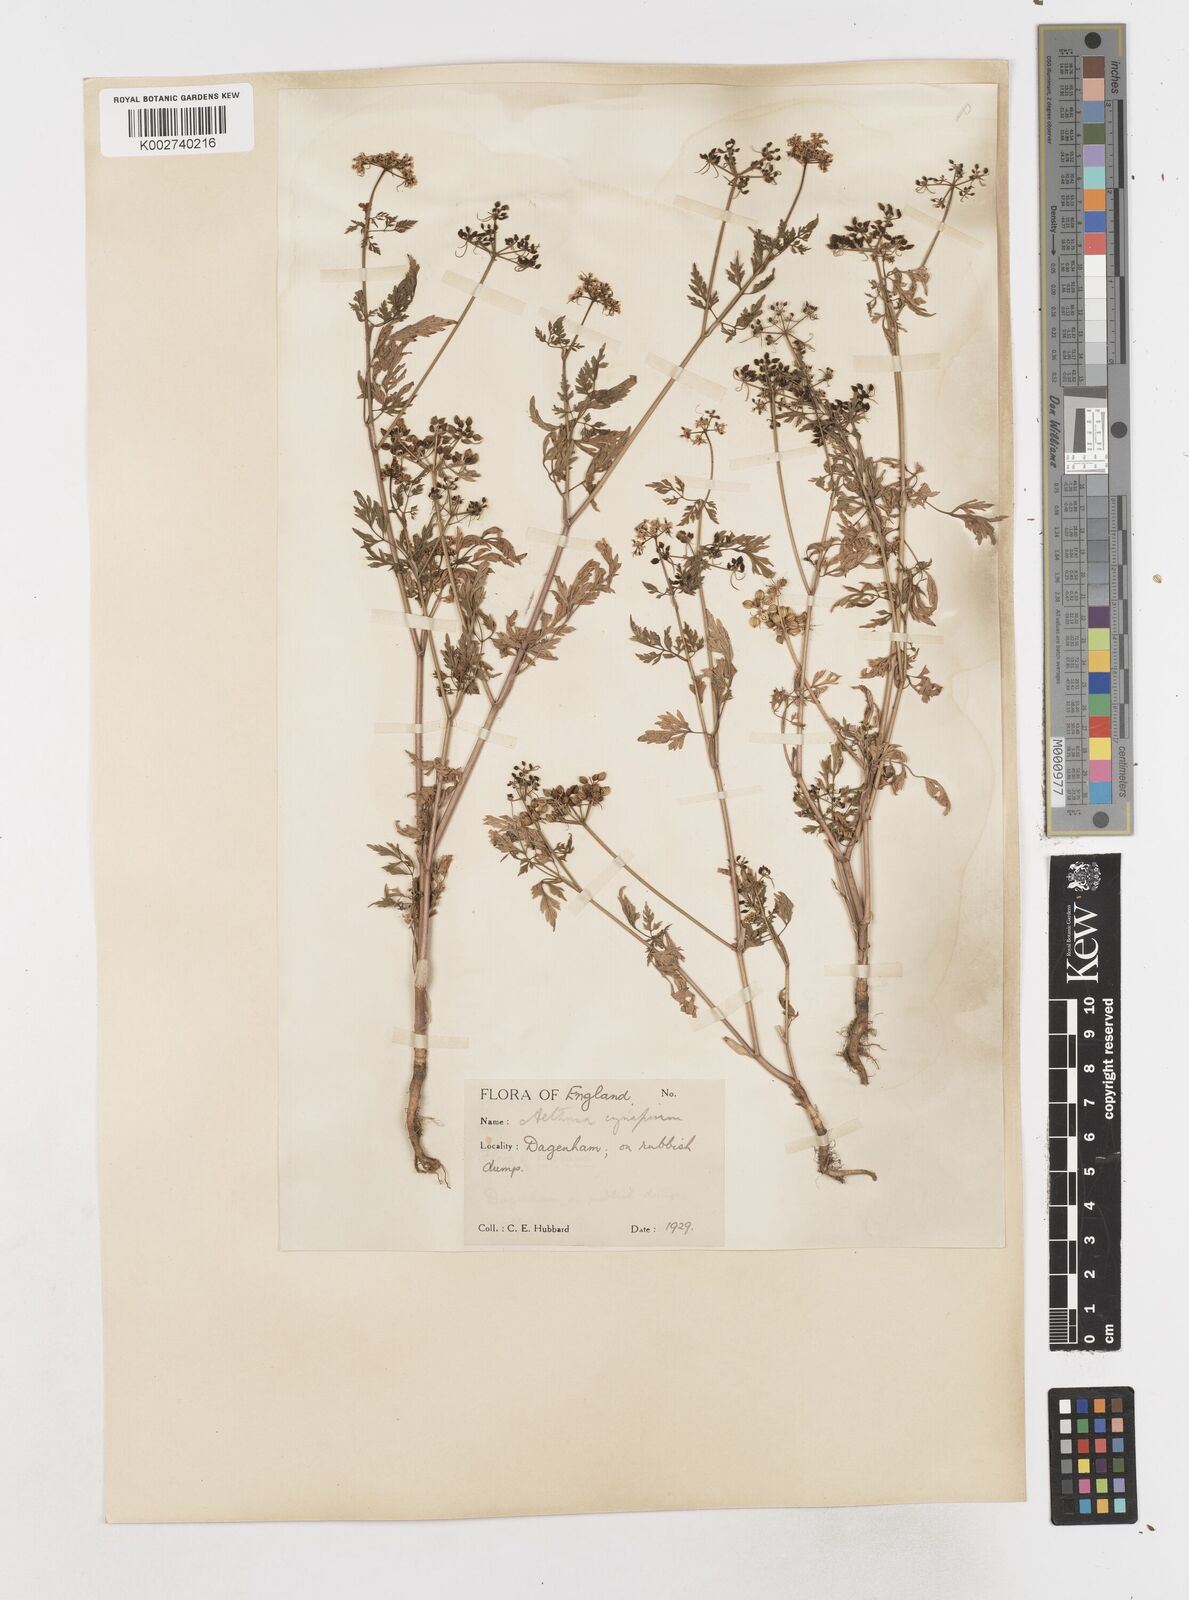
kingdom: Plantae
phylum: Tracheophyta
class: Magnoliopsida
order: Apiales
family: Apiaceae
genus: Aethusa
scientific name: Aethusa cynapium
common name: Fool's parsley
